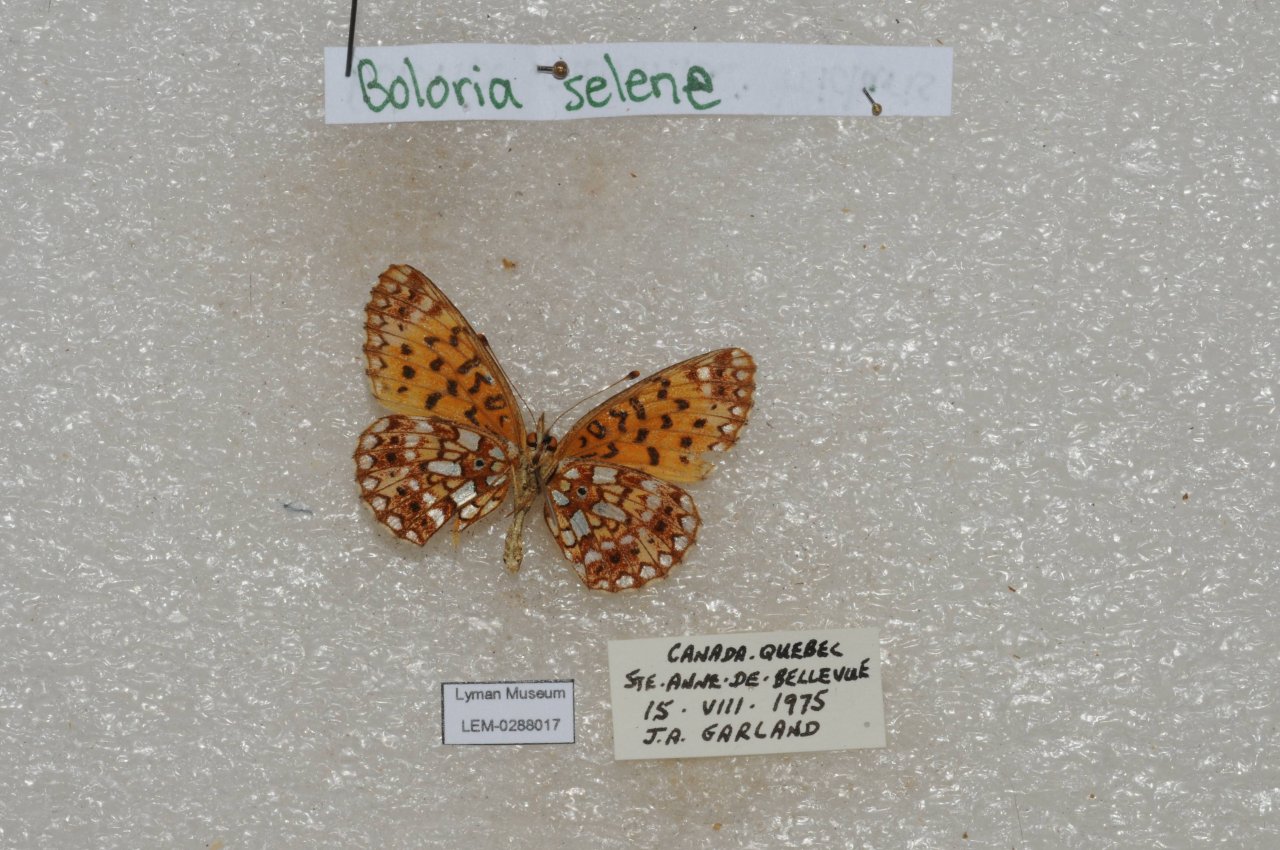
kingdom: Animalia
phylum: Arthropoda
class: Insecta
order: Lepidoptera
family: Nymphalidae
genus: Boloria
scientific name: Boloria selene
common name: Silver-bordered Fritillary
